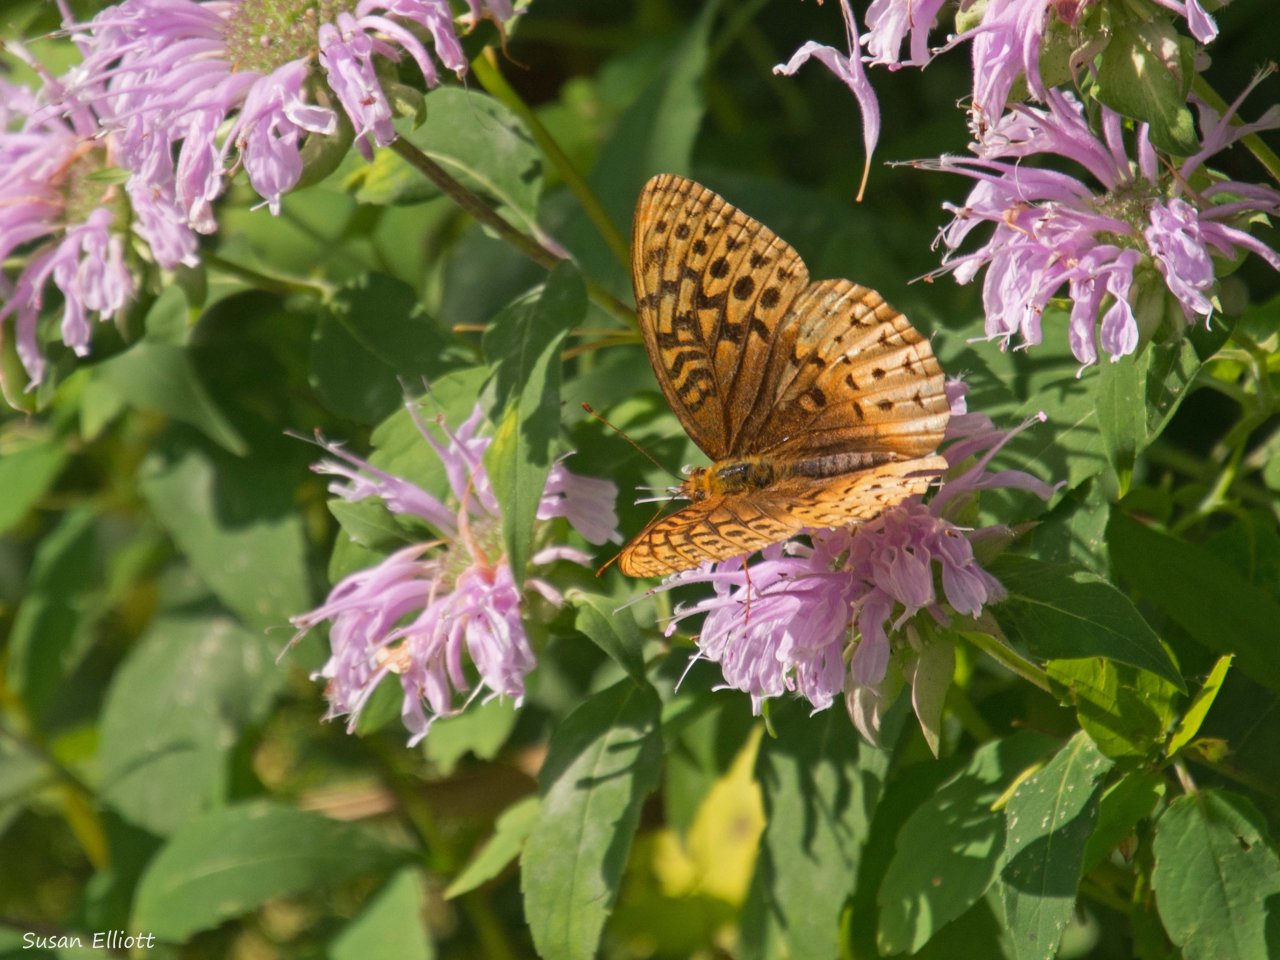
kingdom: Animalia
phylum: Arthropoda
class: Insecta
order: Lepidoptera
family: Nymphalidae
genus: Speyeria
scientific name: Speyeria cybele
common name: Great Spangled Fritillary
